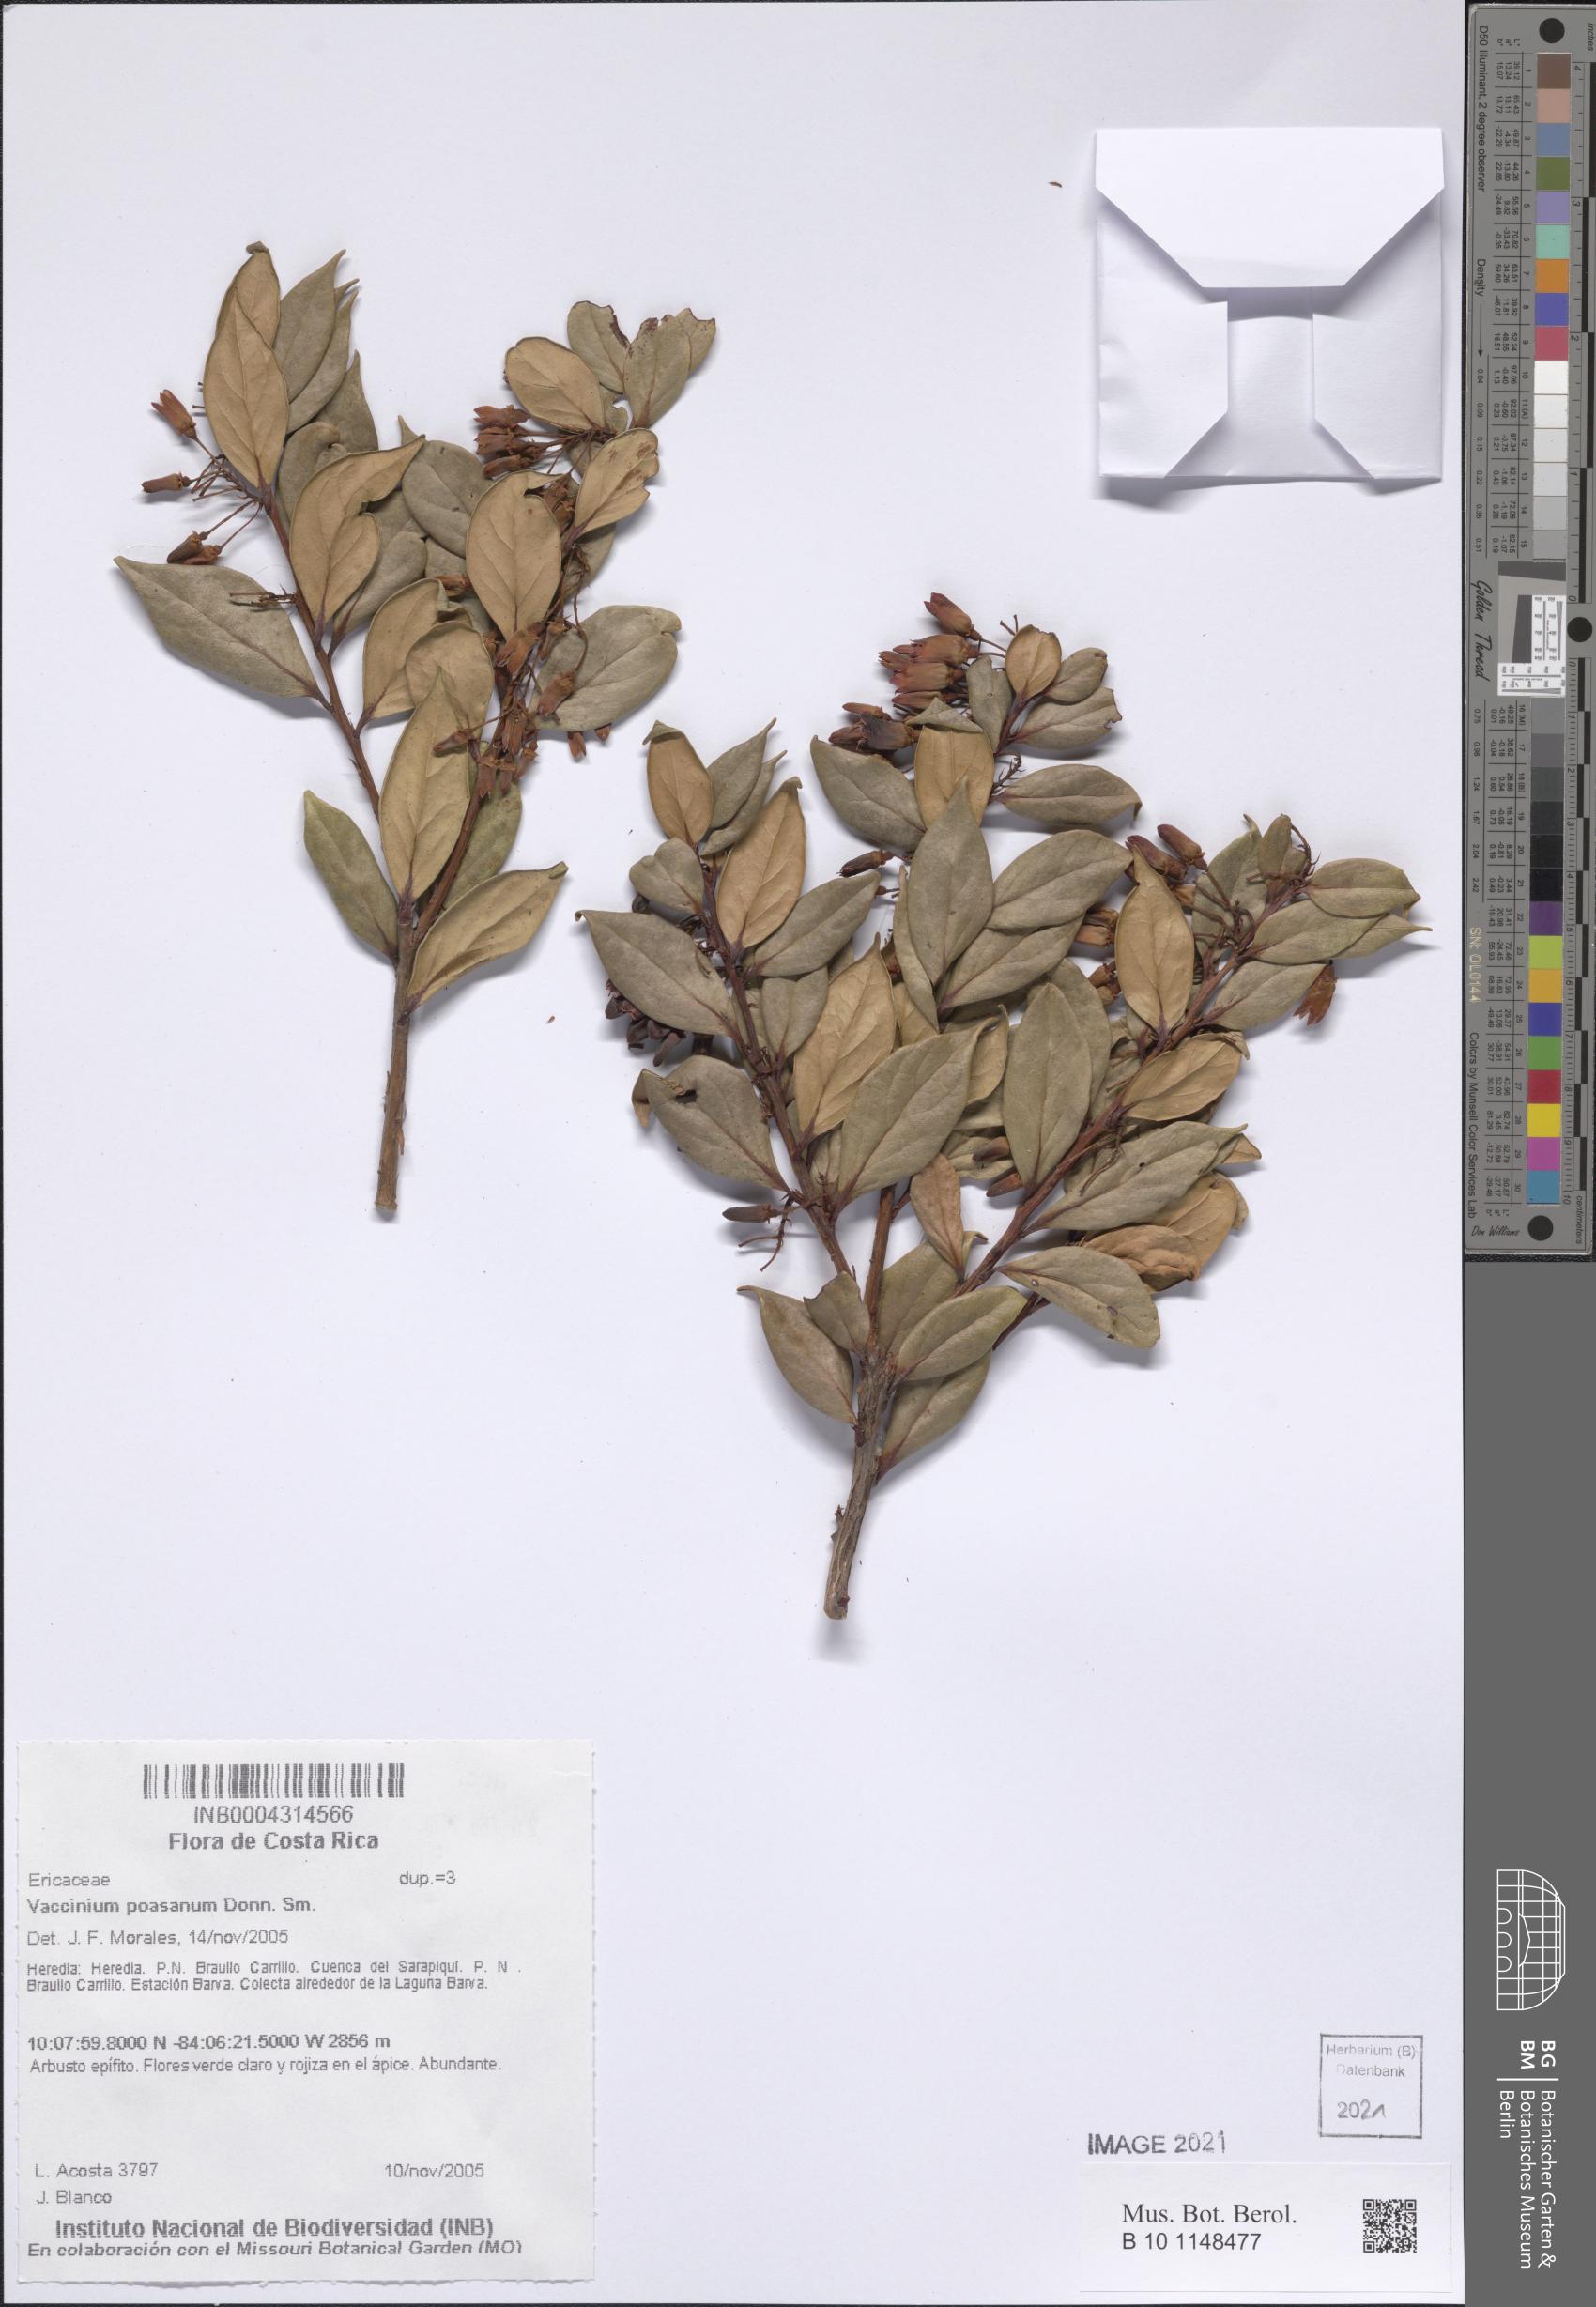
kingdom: Plantae
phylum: Tracheophyta
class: Magnoliopsida
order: Ericales
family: Ericaceae
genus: Symphysia
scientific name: Symphysia poasana
